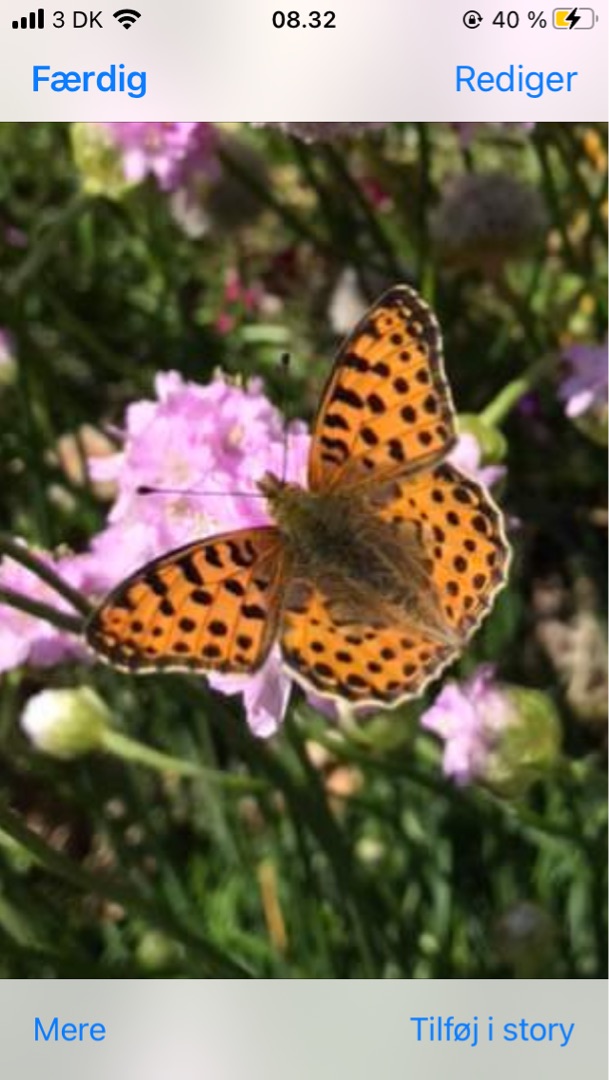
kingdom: Animalia
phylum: Arthropoda
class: Insecta
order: Lepidoptera
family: Nymphalidae
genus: Issoria
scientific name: Issoria lathonia
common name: Storplettet perlemorsommerfugl
